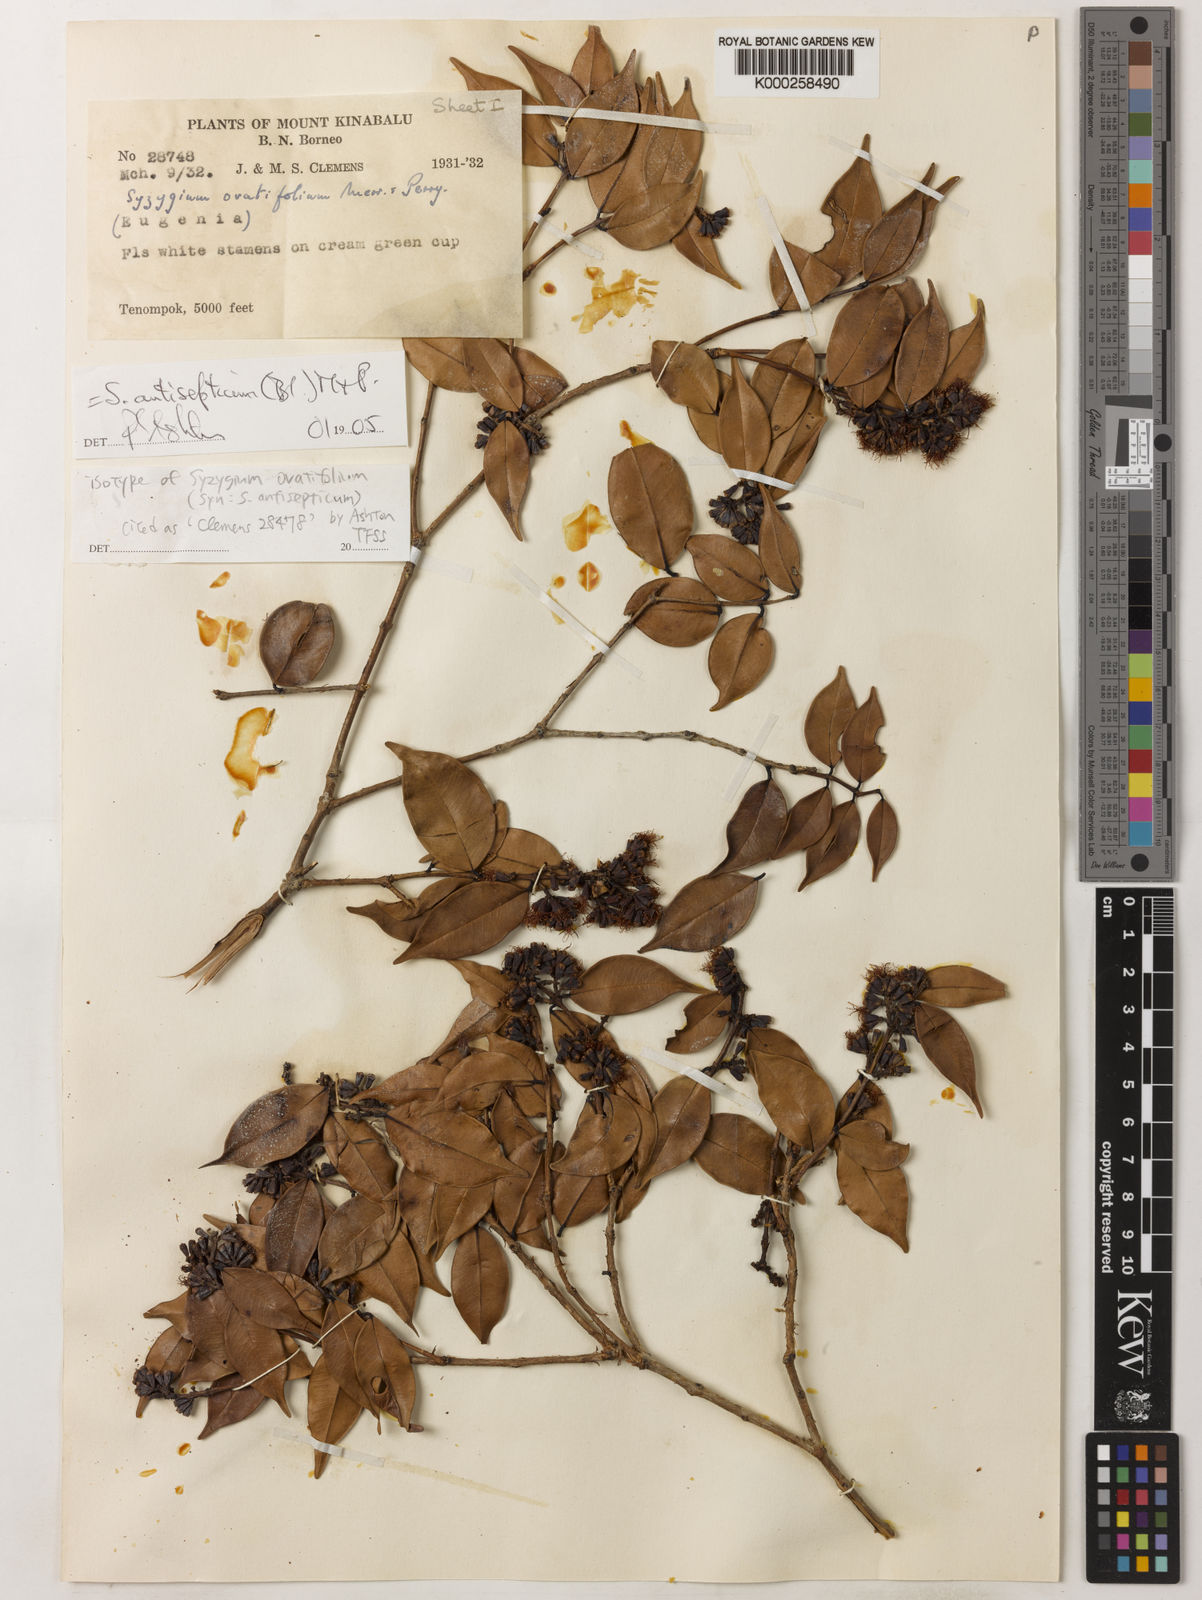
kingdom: Plantae
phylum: Tracheophyta
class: Magnoliopsida
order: Myrtales
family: Myrtaceae
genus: Syzygium
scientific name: Syzygium antisepticum
